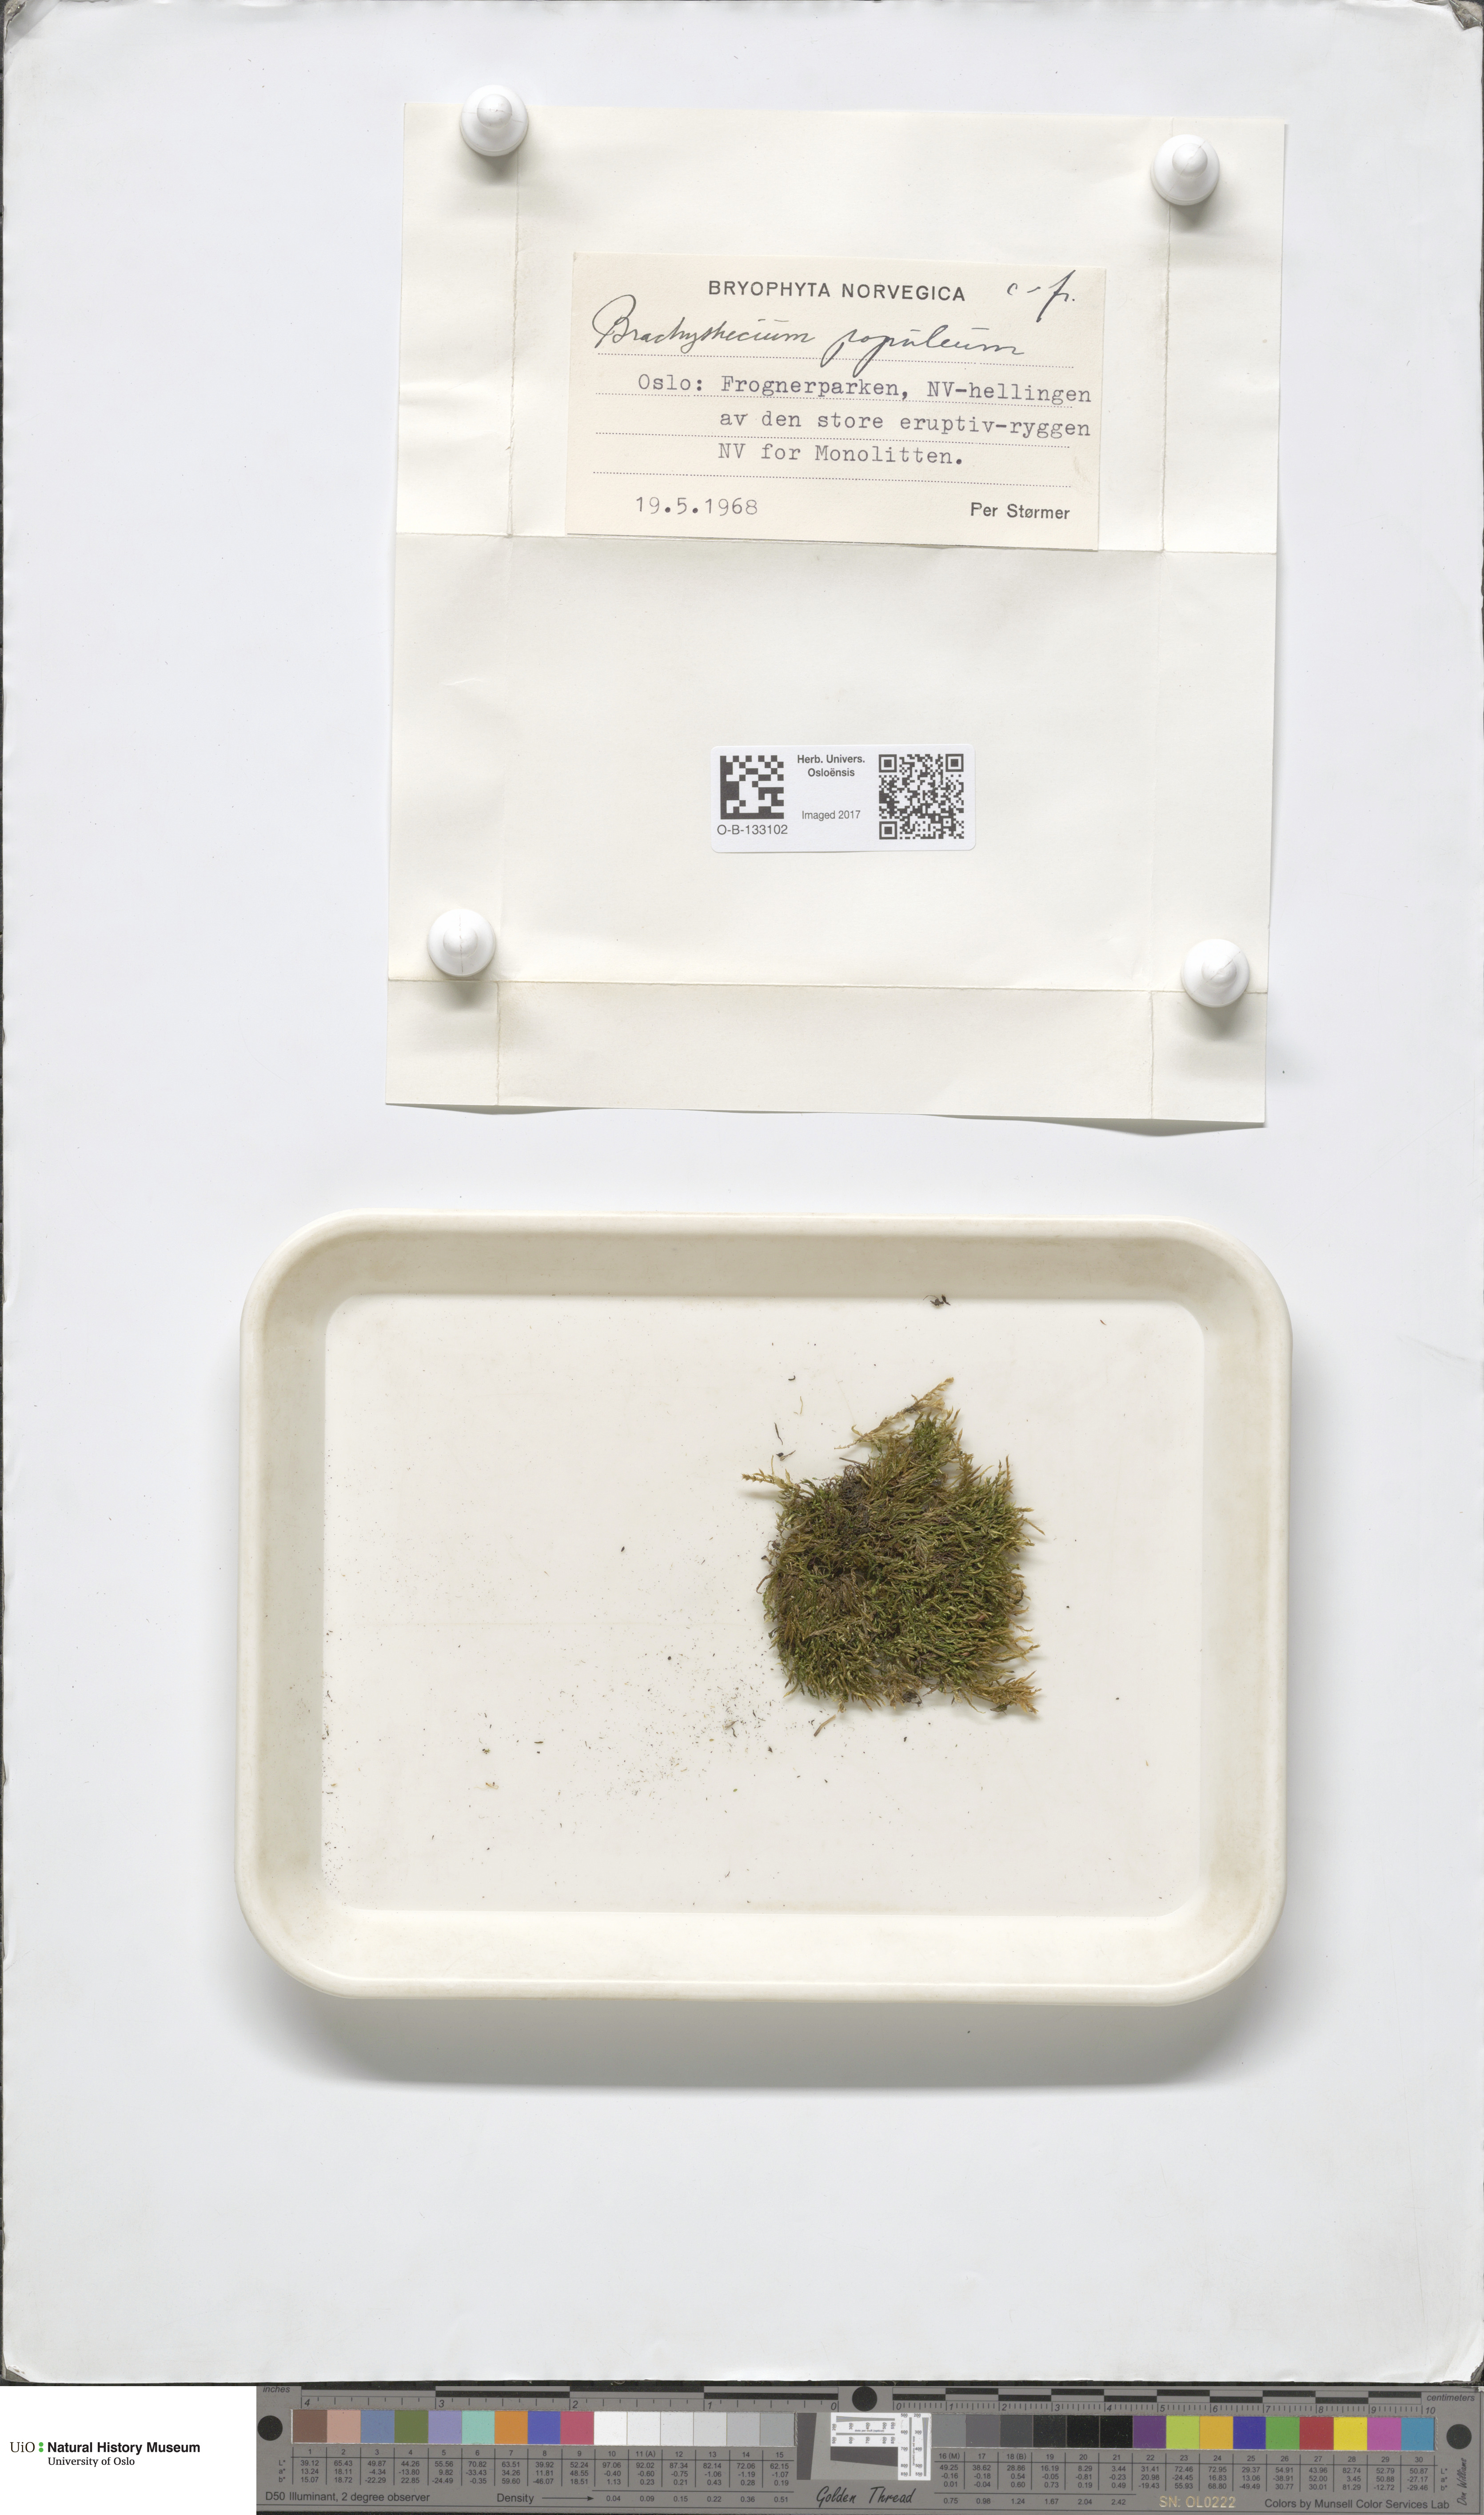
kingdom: Plantae
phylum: Bryophyta
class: Bryopsida
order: Hypnales
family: Brachytheciaceae
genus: Sciuro-hypnum
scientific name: Sciuro-hypnum plumosum
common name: Rusty feather-moss
